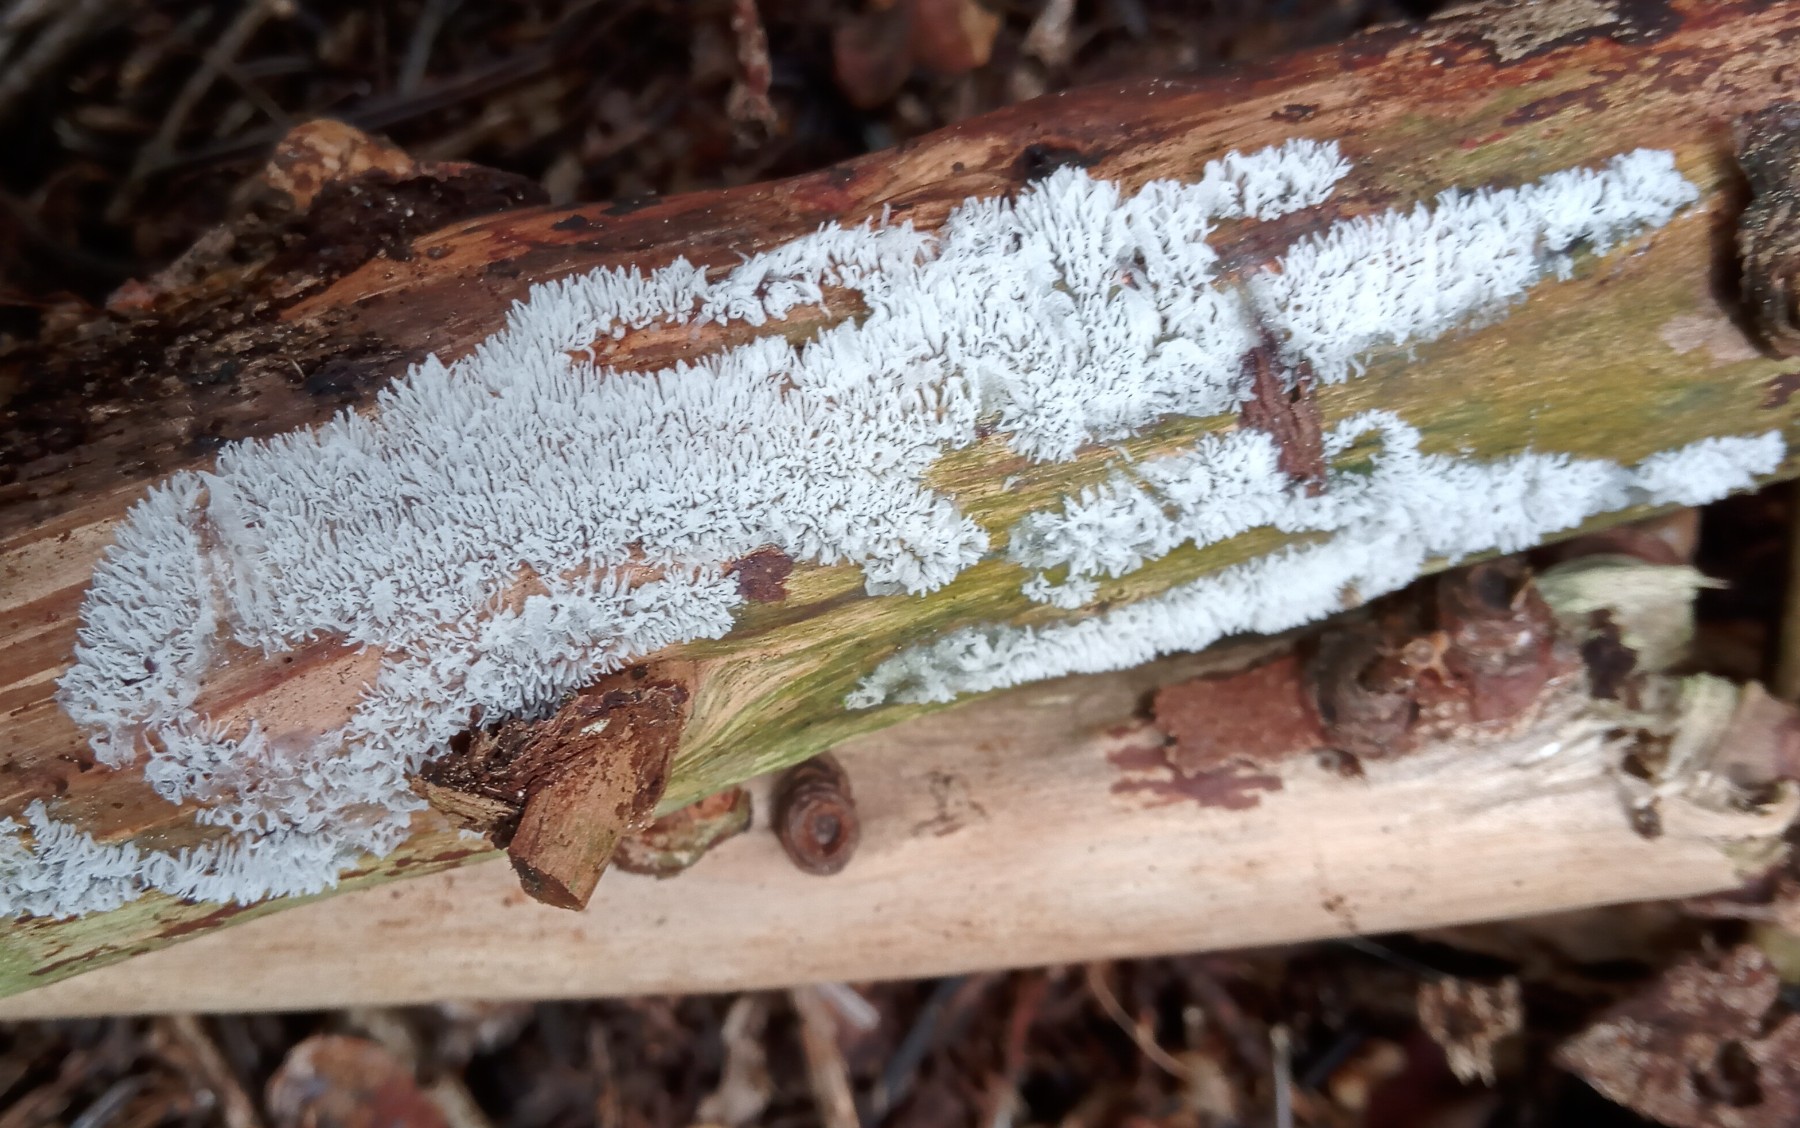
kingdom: Protozoa
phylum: Mycetozoa
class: Protosteliomycetes
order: Ceratiomyxales
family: Ceratiomyxaceae
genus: Ceratiomyxa
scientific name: Ceratiomyxa fruticulosa
